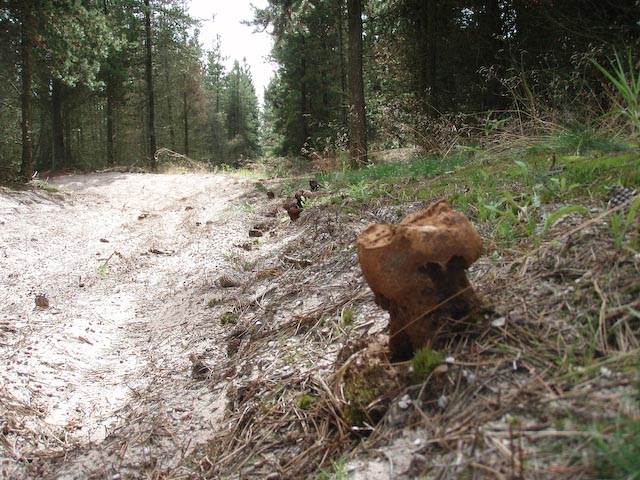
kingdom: Fungi
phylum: Basidiomycota
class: Agaricomycetes
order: Boletales
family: Sclerodermataceae
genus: Pisolithus
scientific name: Pisolithus capsulifer
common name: farvebold
